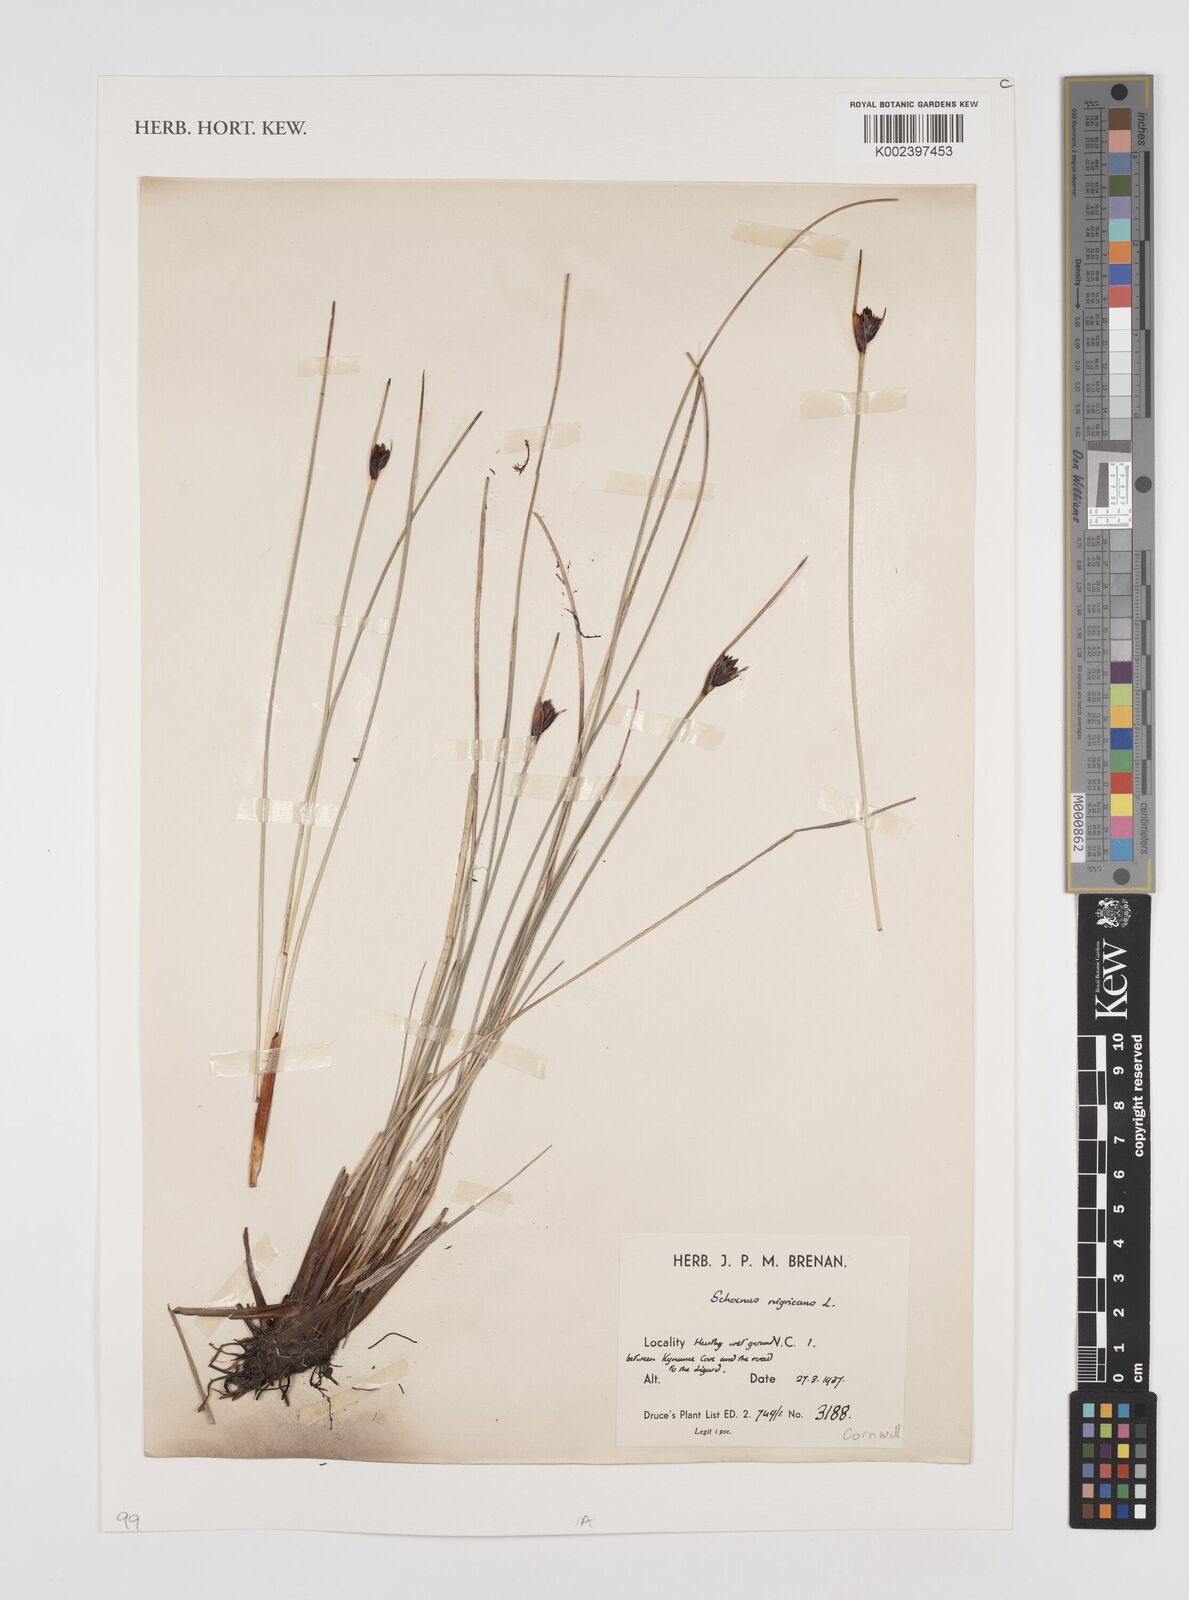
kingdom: Plantae
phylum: Tracheophyta
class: Liliopsida
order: Poales
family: Cyperaceae
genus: Schoenus
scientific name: Schoenus nigricans
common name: Black bog-rush
